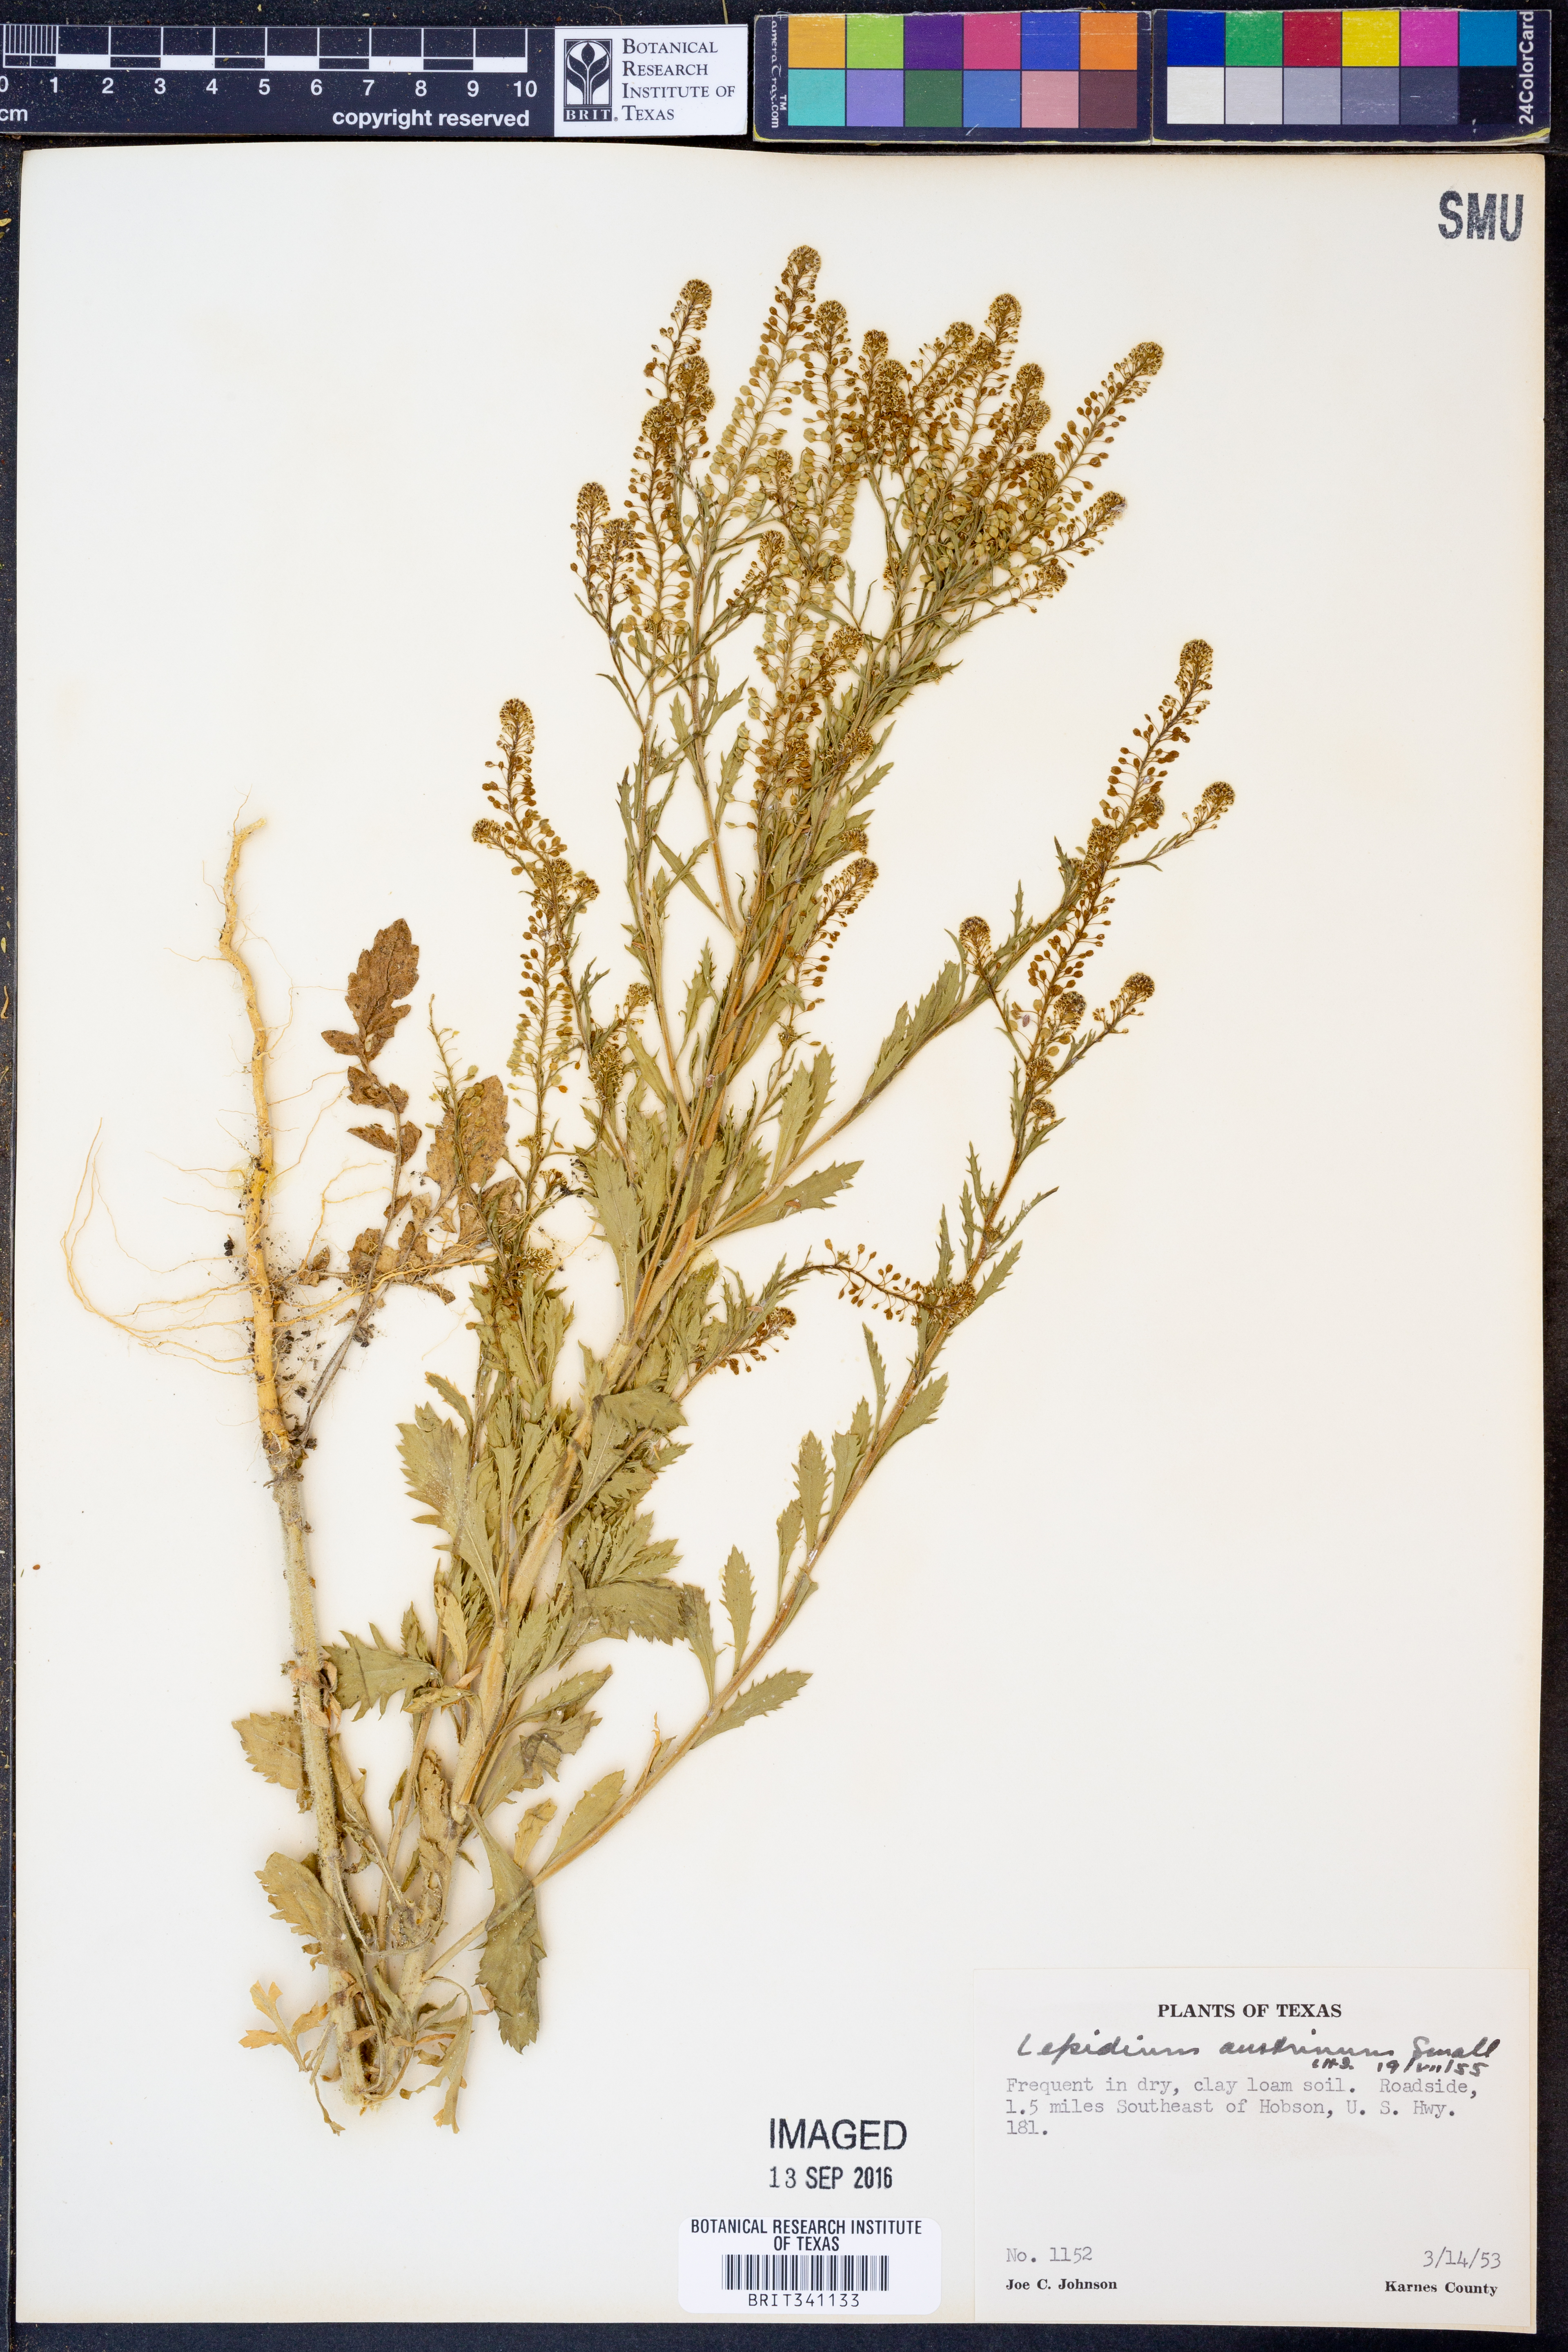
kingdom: Plantae
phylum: Tracheophyta
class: Magnoliopsida
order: Brassicales
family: Brassicaceae
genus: Lepidium
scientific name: Lepidium austrinum
